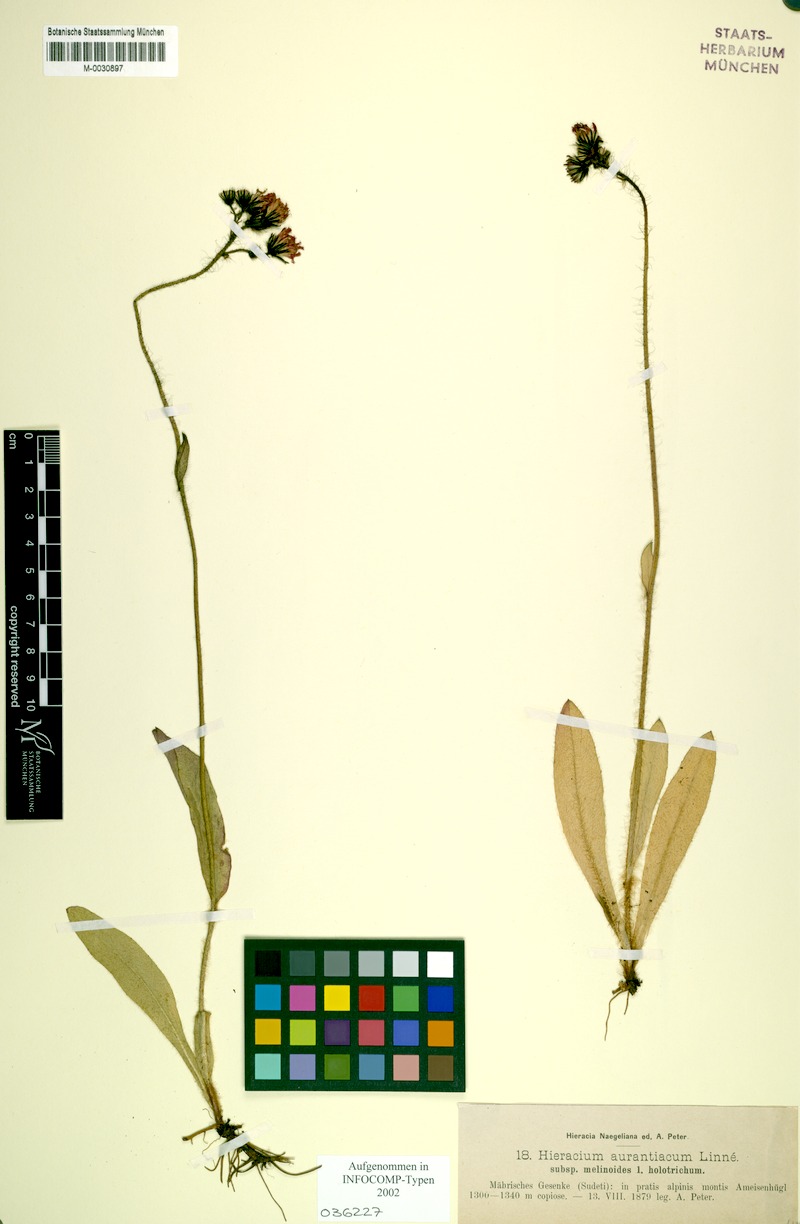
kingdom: Plantae
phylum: Tracheophyta
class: Magnoliopsida
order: Asterales
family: Asteraceae
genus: Pilosella
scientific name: Pilosella aurantiaca
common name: Fox-and-cubs
